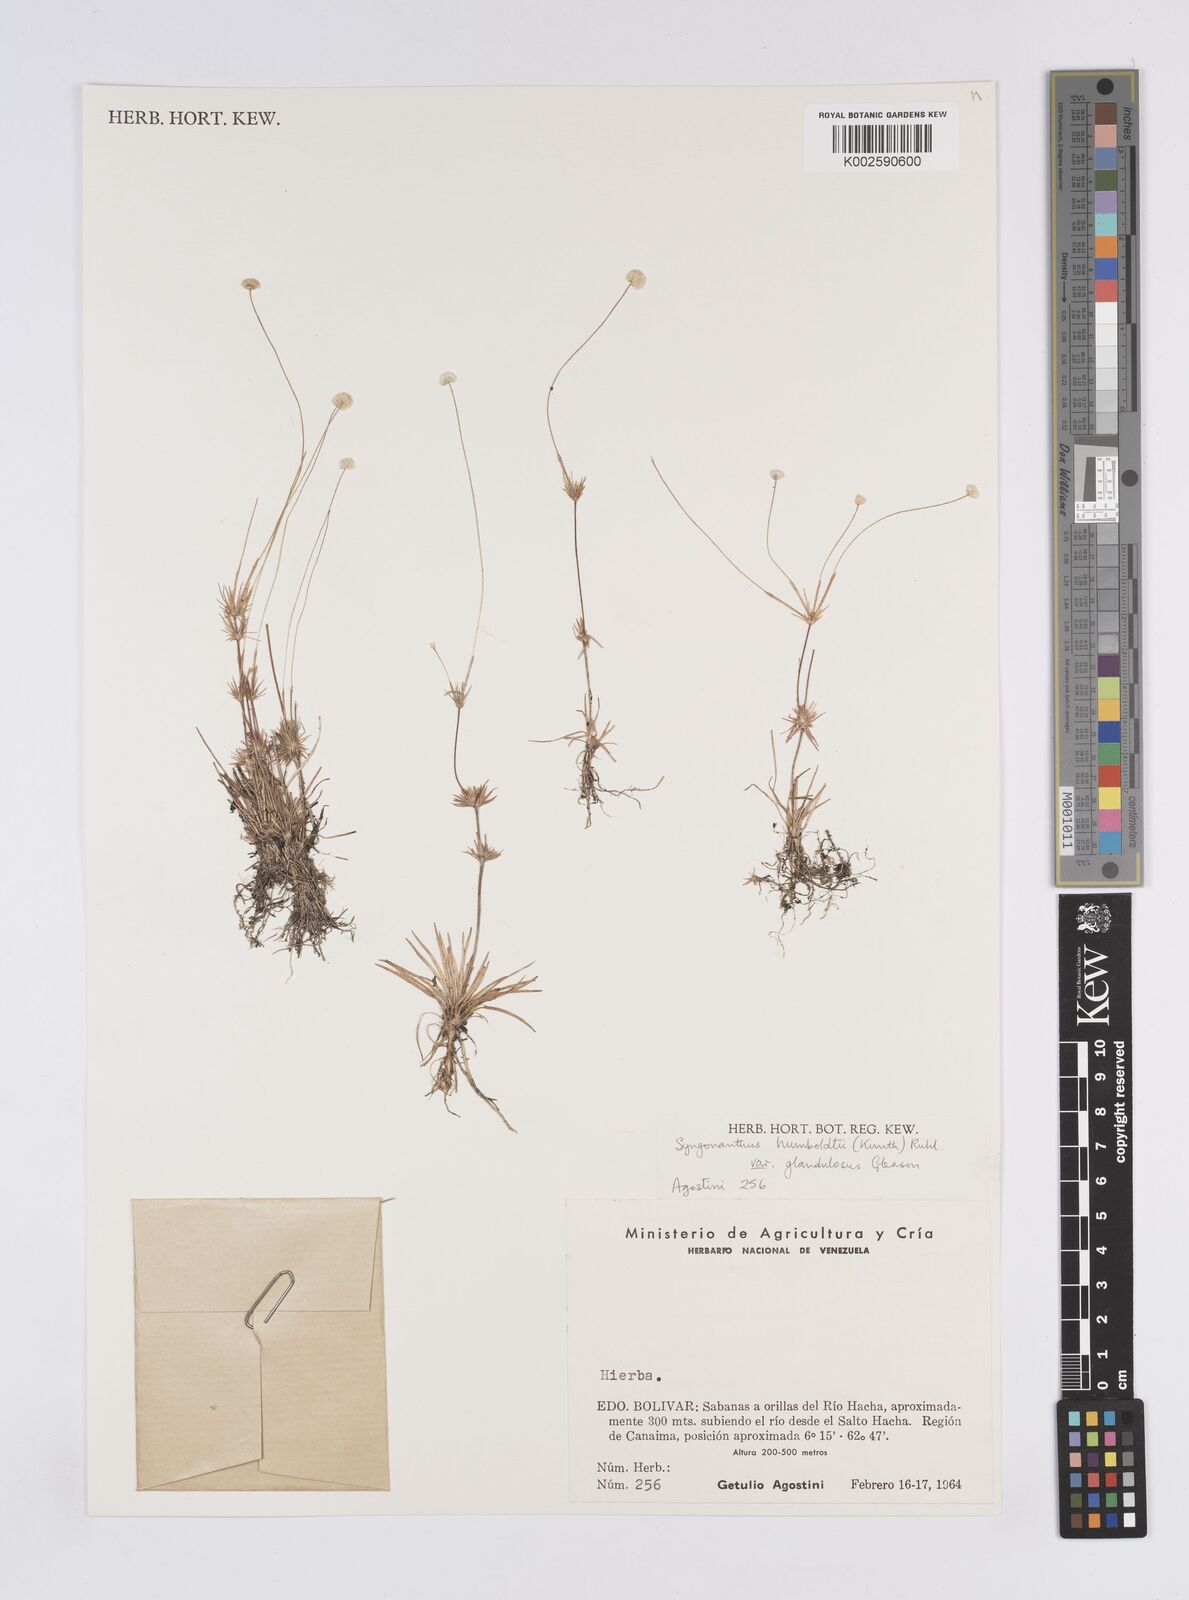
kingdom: Plantae
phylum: Tracheophyta
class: Liliopsida
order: Poales
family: Eriocaulaceae
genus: Syngonanthus
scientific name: Syngonanthus humboldtii
